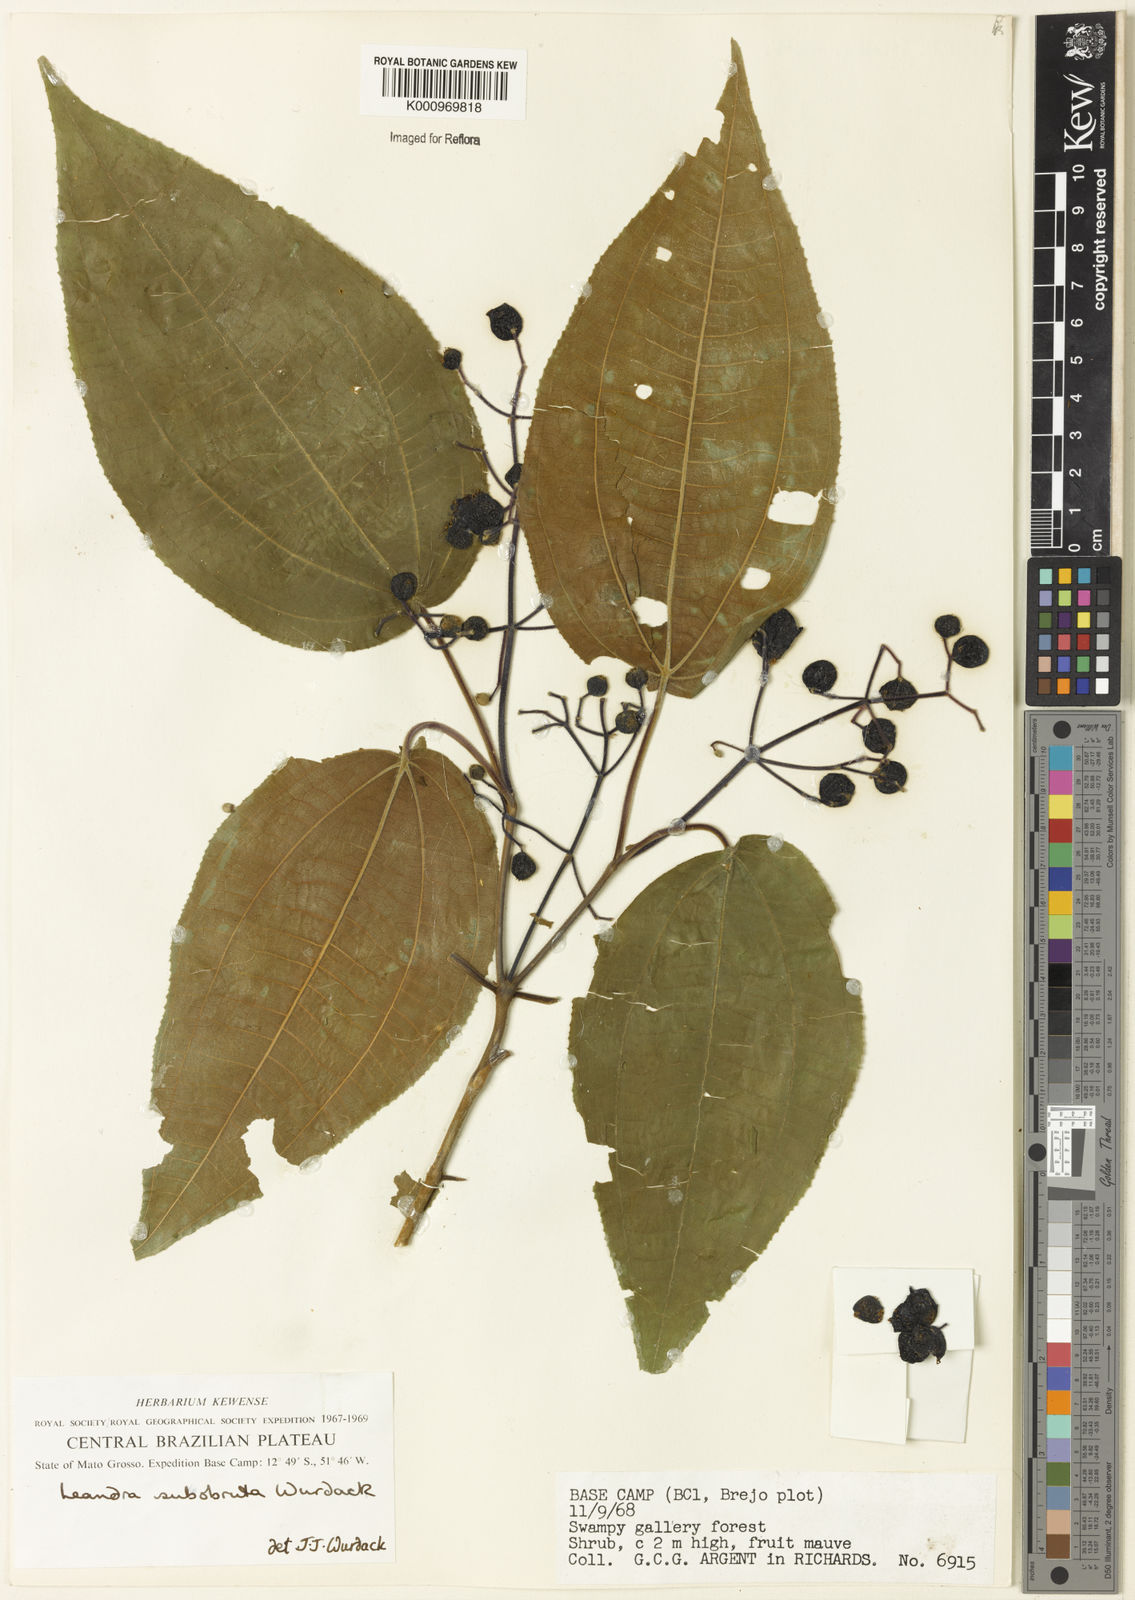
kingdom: Plantae
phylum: Tracheophyta
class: Magnoliopsida
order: Myrtales
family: Melastomataceae
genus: Miconia
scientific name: Miconia subobruta
